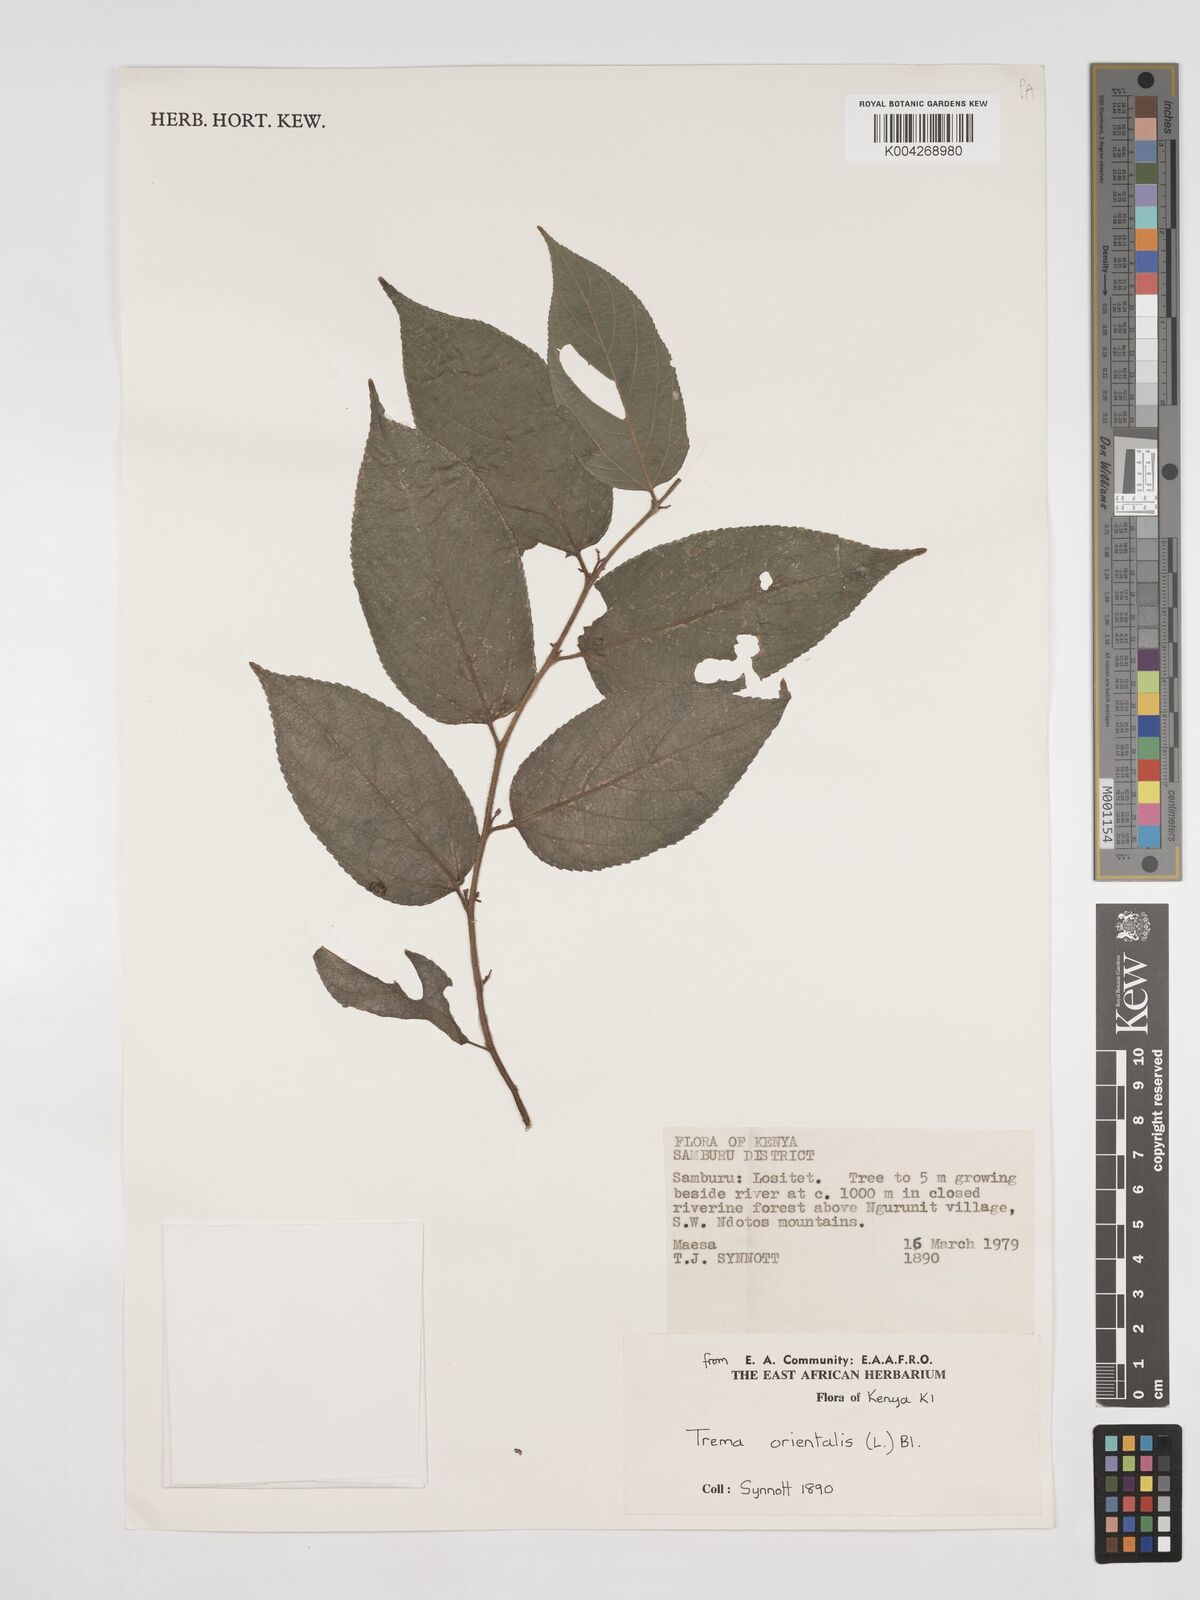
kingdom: Plantae
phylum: Tracheophyta
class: Magnoliopsida
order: Rosales
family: Cannabaceae
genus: Trema
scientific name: Trema orientale
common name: Indian charcoal tree
